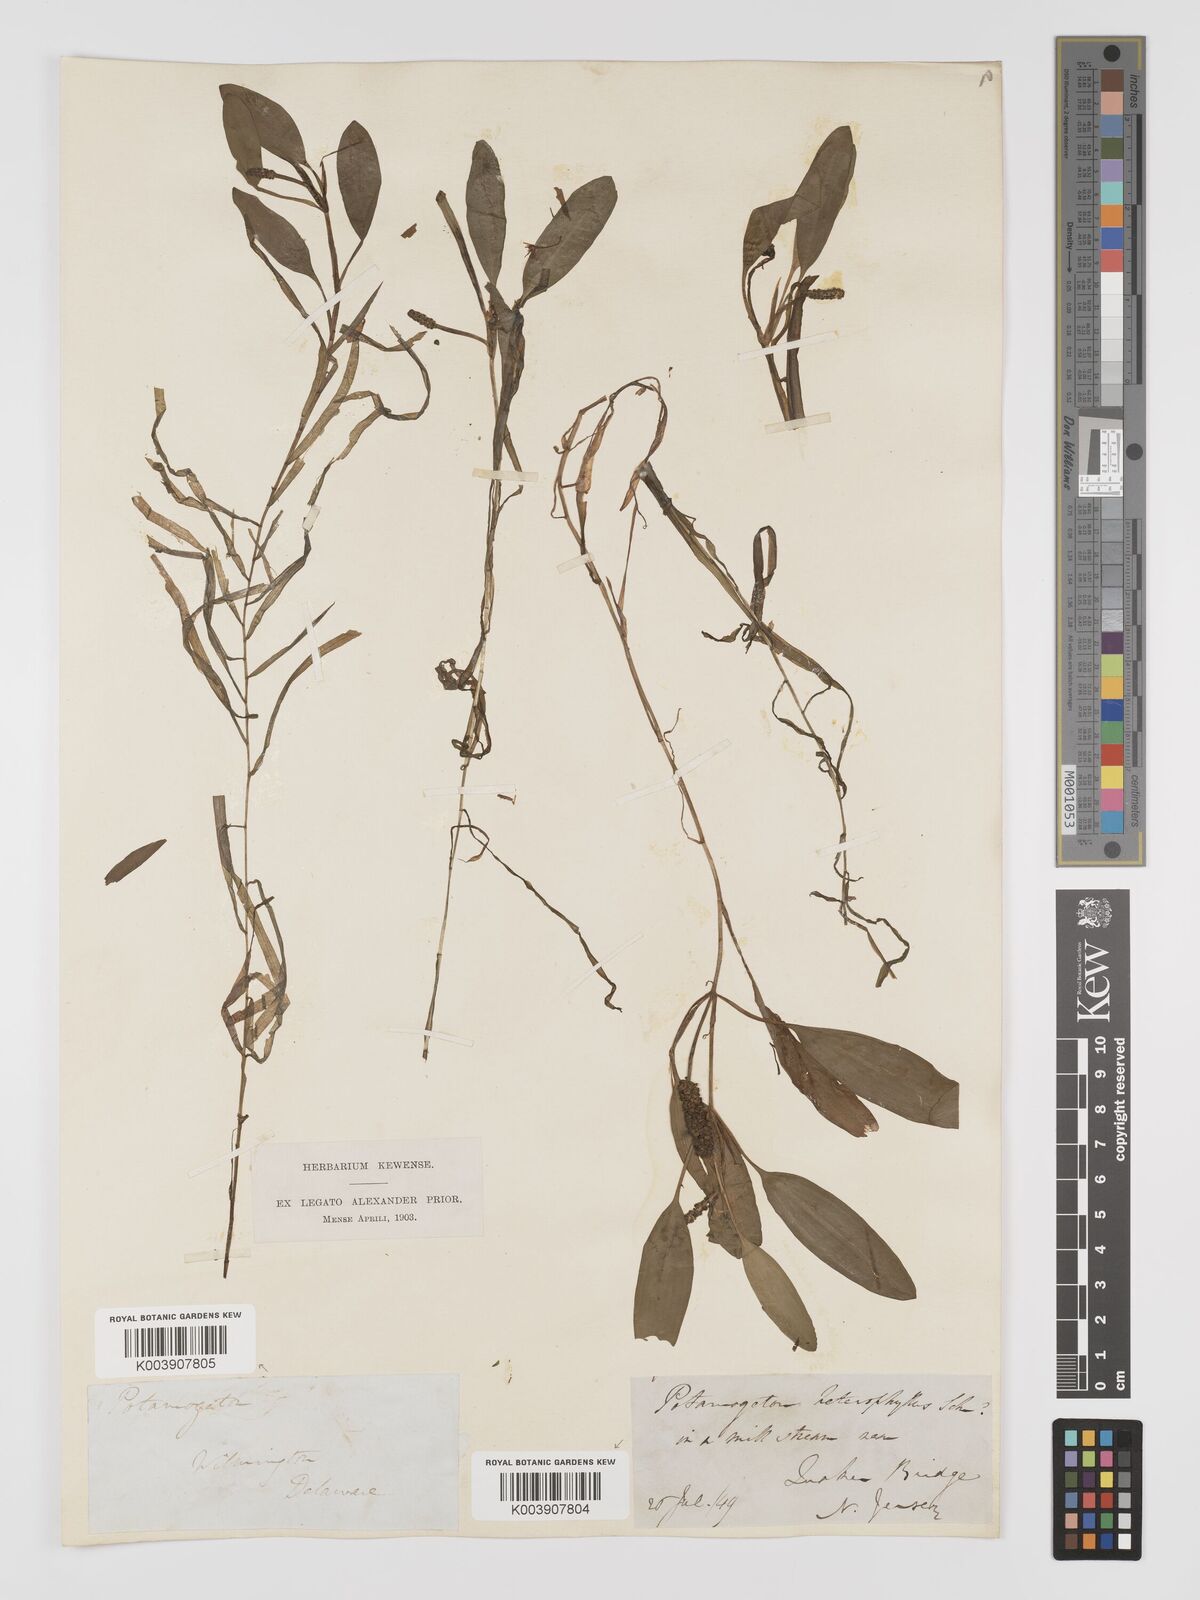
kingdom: Plantae
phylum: Tracheophyta
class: Liliopsida
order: Alismatales
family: Potamogetonaceae
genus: Potamogeton
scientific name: Potamogeton gramineus
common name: Various-leaved pondweed
